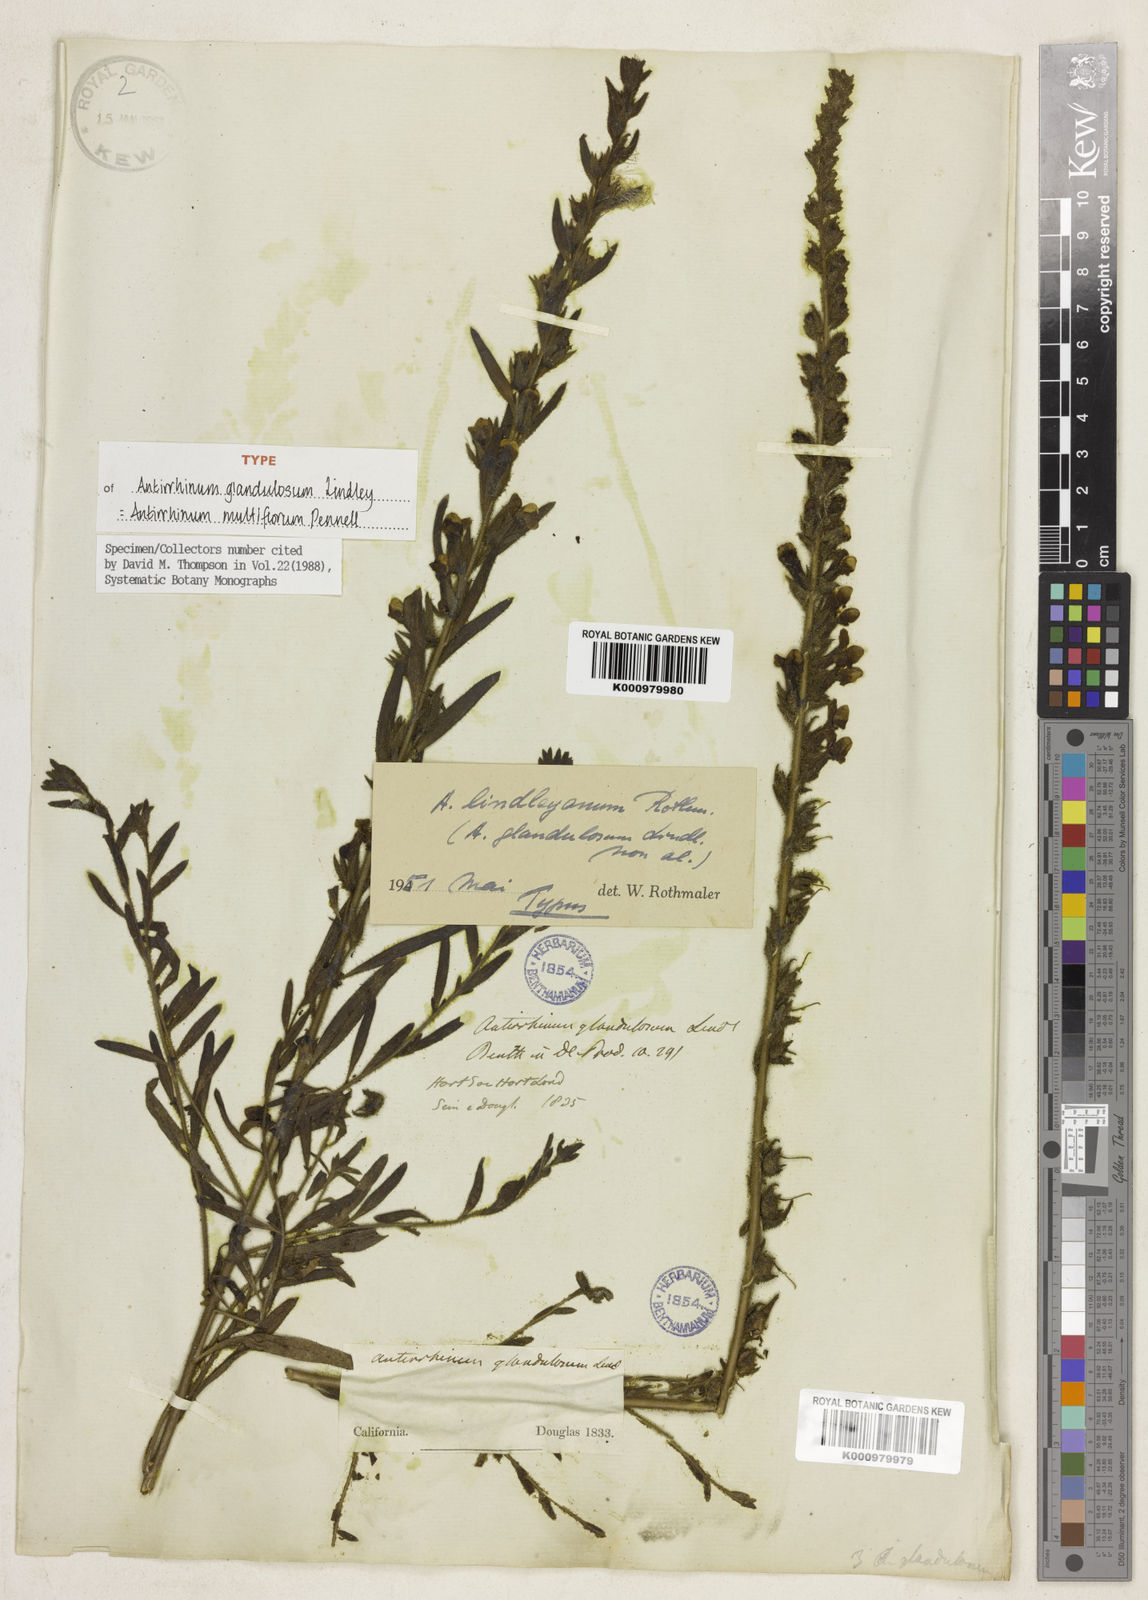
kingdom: Plantae
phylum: Tracheophyta
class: Magnoliopsida
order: Lamiales
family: Plantaginaceae
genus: Sairocarpus
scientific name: Sairocarpus multiflorus
